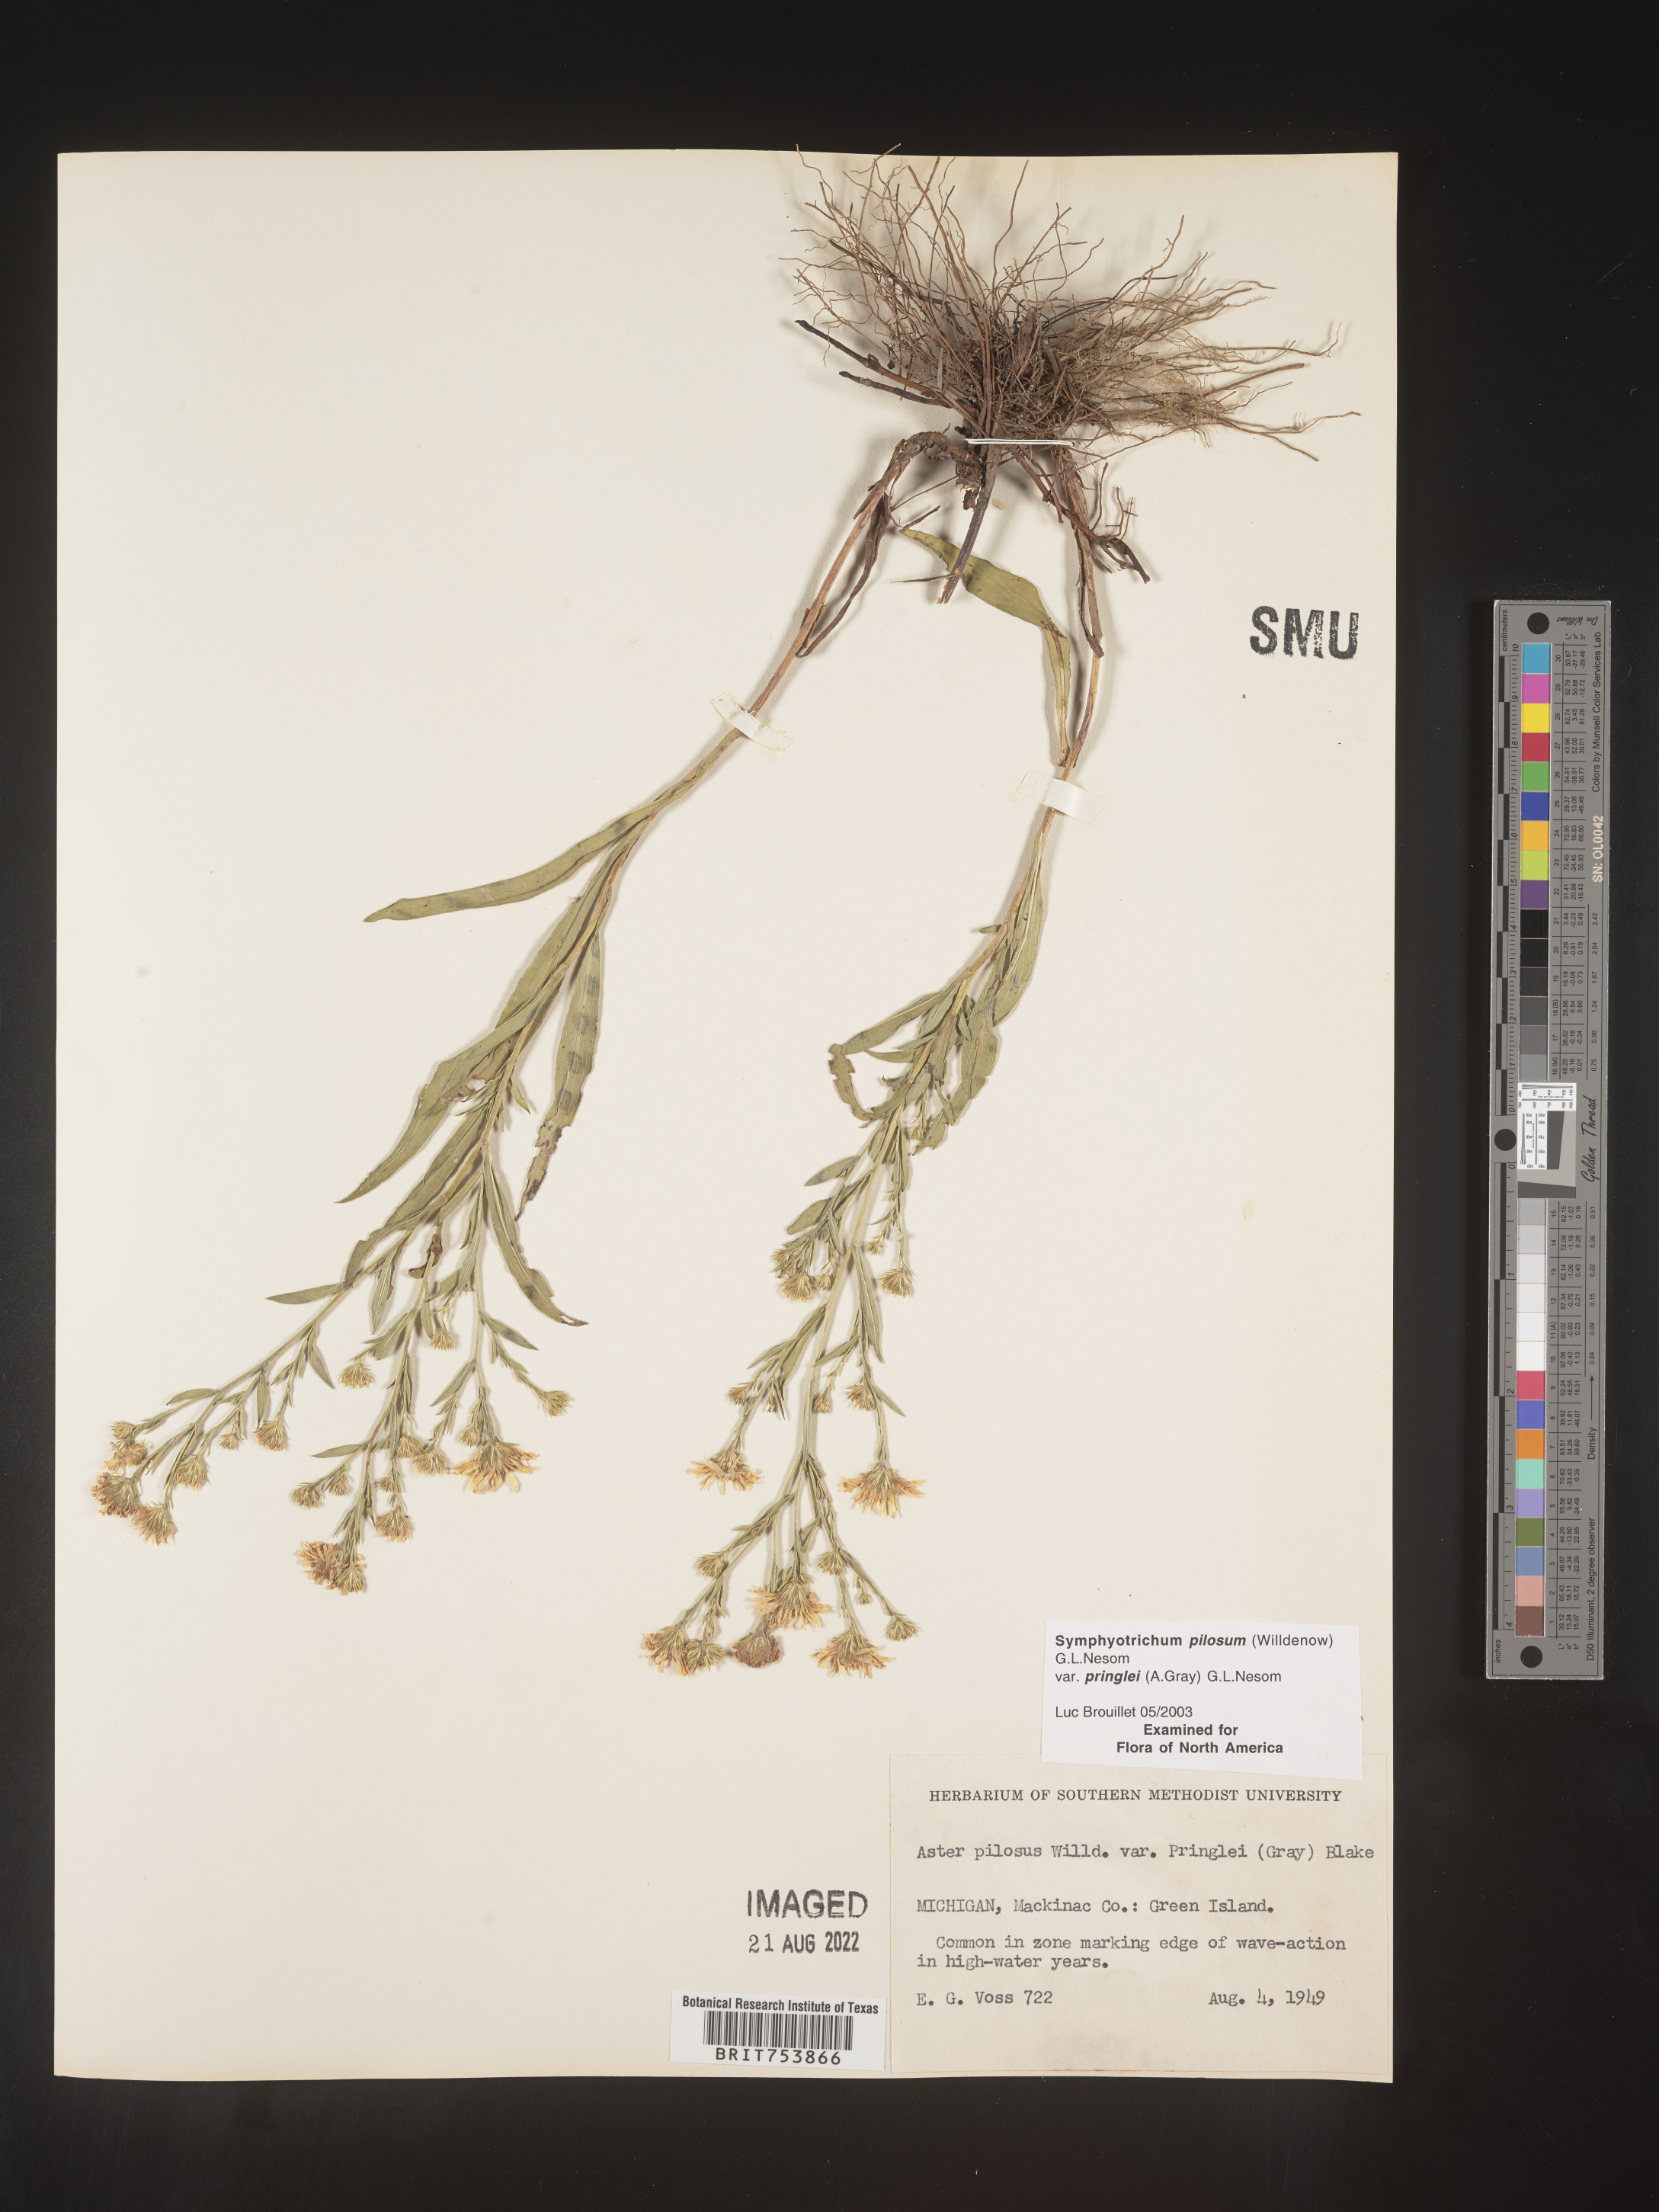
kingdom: Plantae
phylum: Tracheophyta
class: Magnoliopsida
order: Asterales
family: Asteraceae
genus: Symphyotrichum
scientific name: Symphyotrichum pilosum
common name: Awl aster
